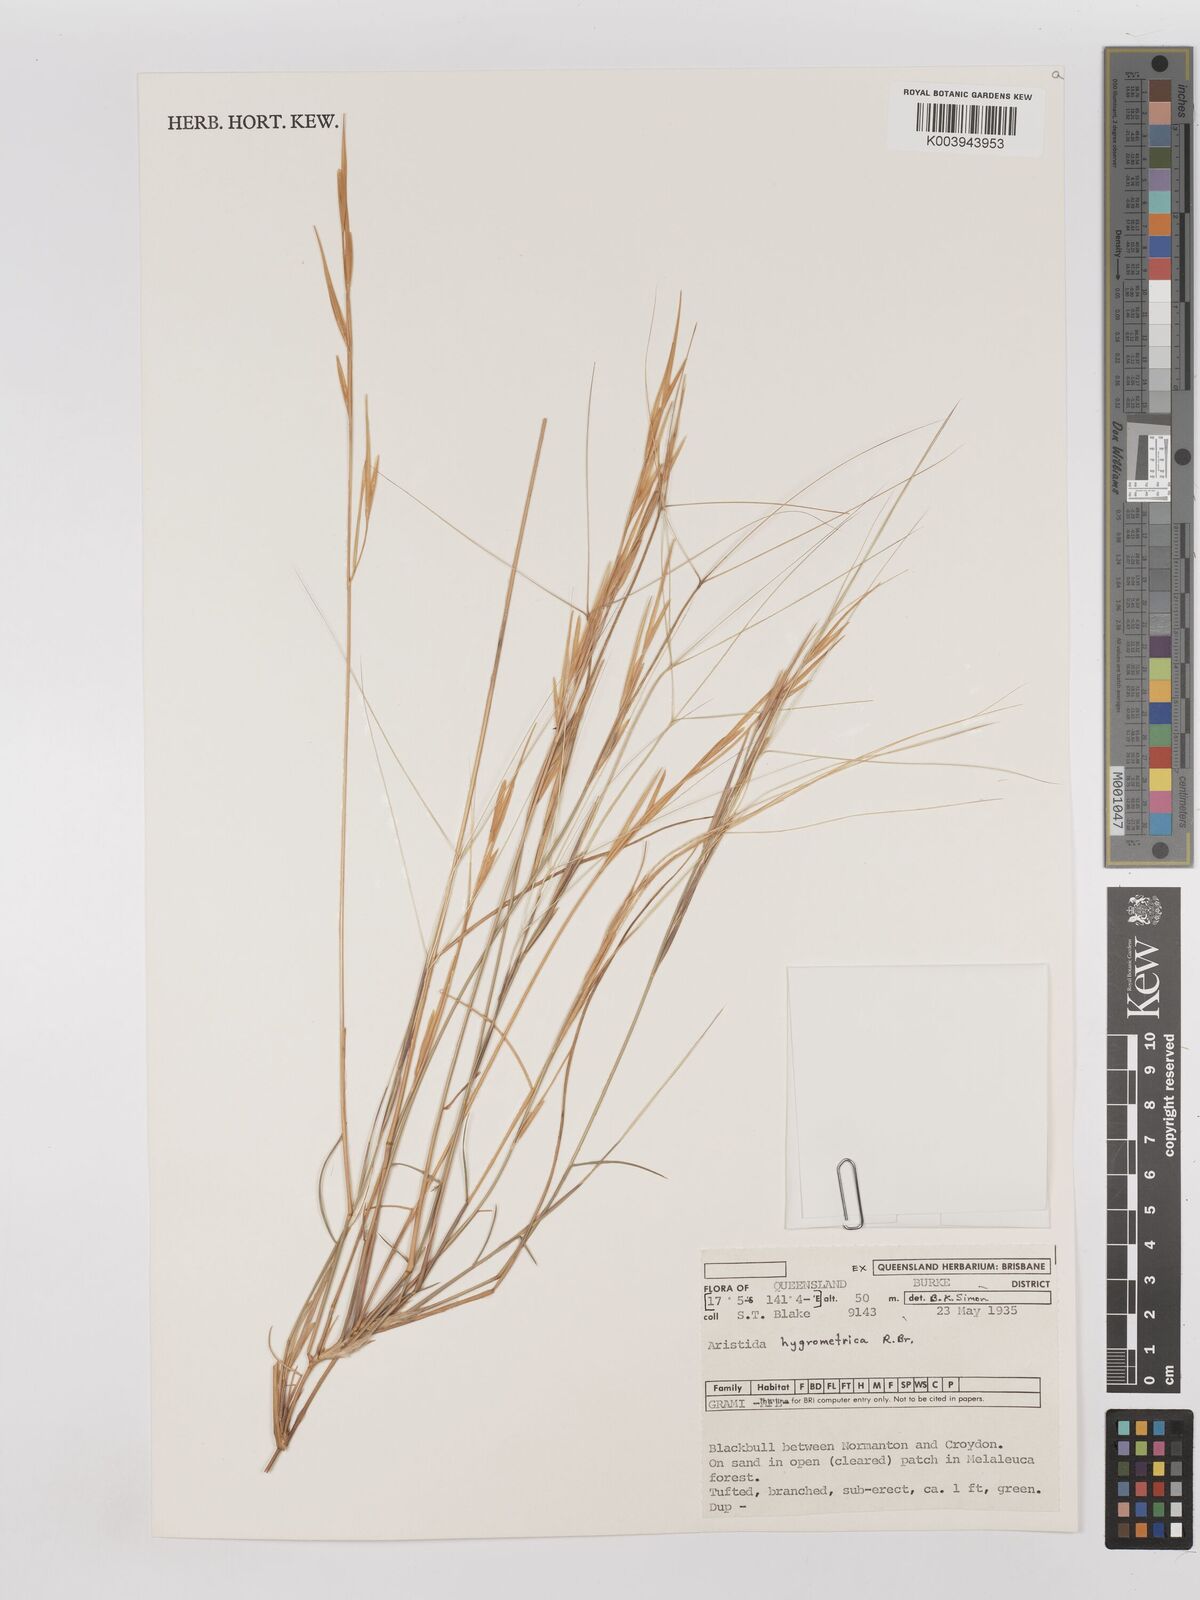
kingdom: Plantae
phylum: Tracheophyta
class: Liliopsida
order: Poales
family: Poaceae
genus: Aristida
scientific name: Aristida hygrometrica
